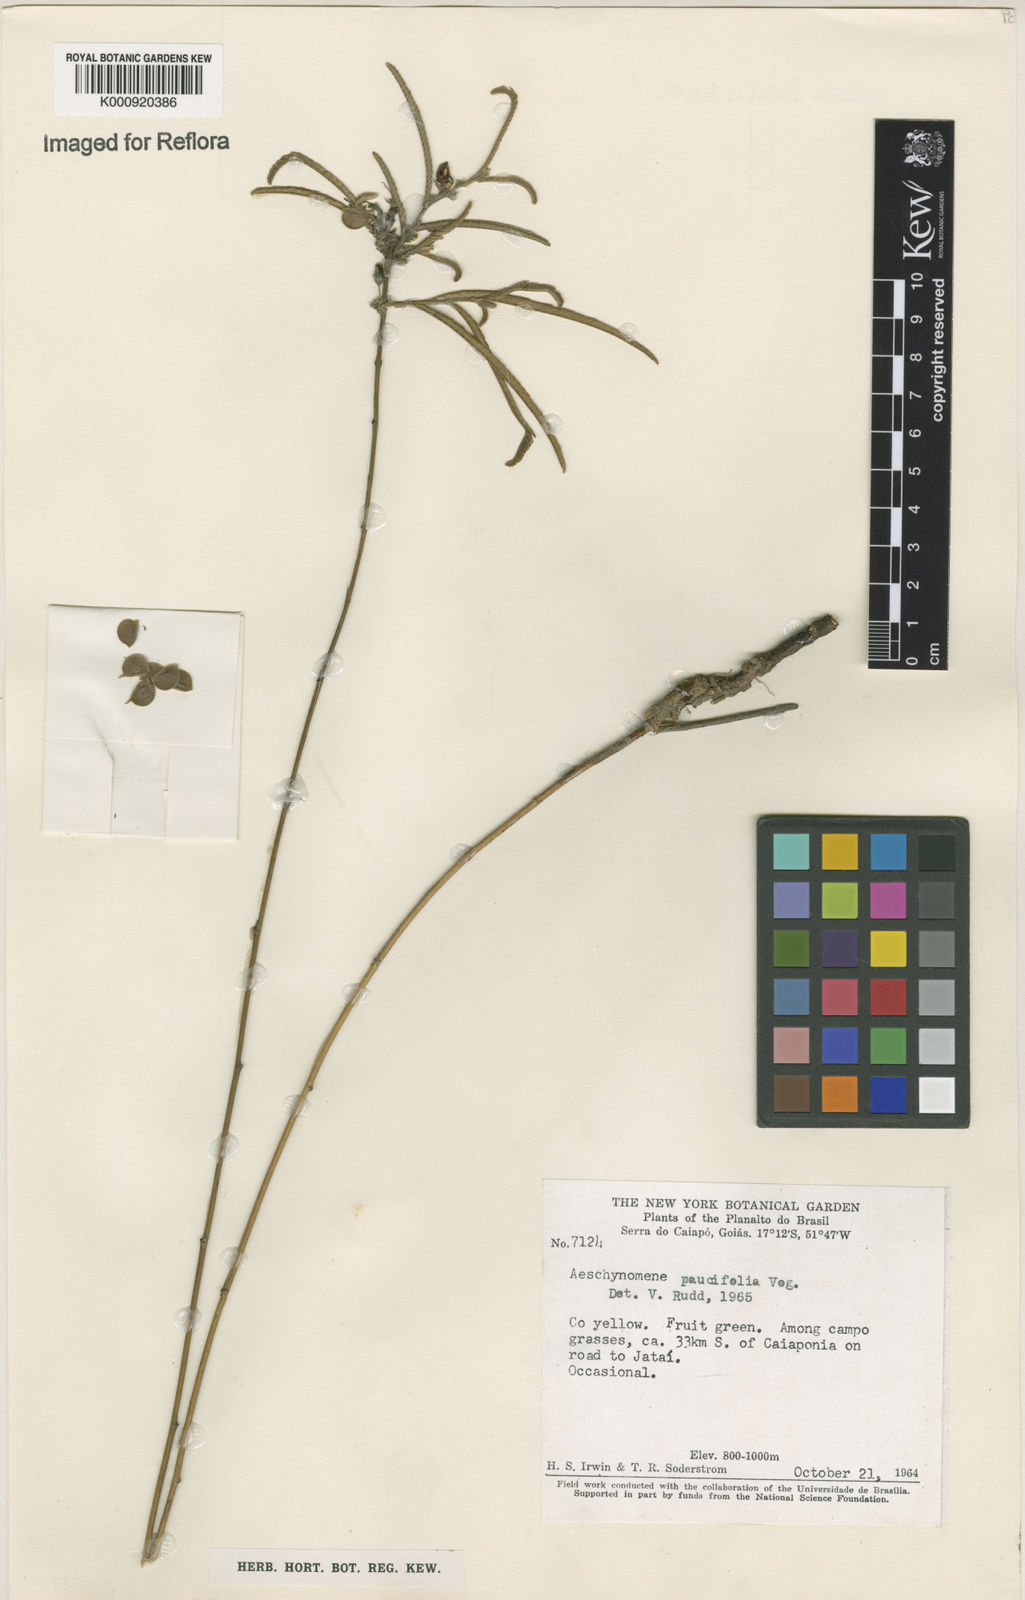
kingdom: Plantae
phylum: Tracheophyta
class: Magnoliopsida
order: Fabales
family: Fabaceae
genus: Ctenodon
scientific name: Ctenodon paucifolius
